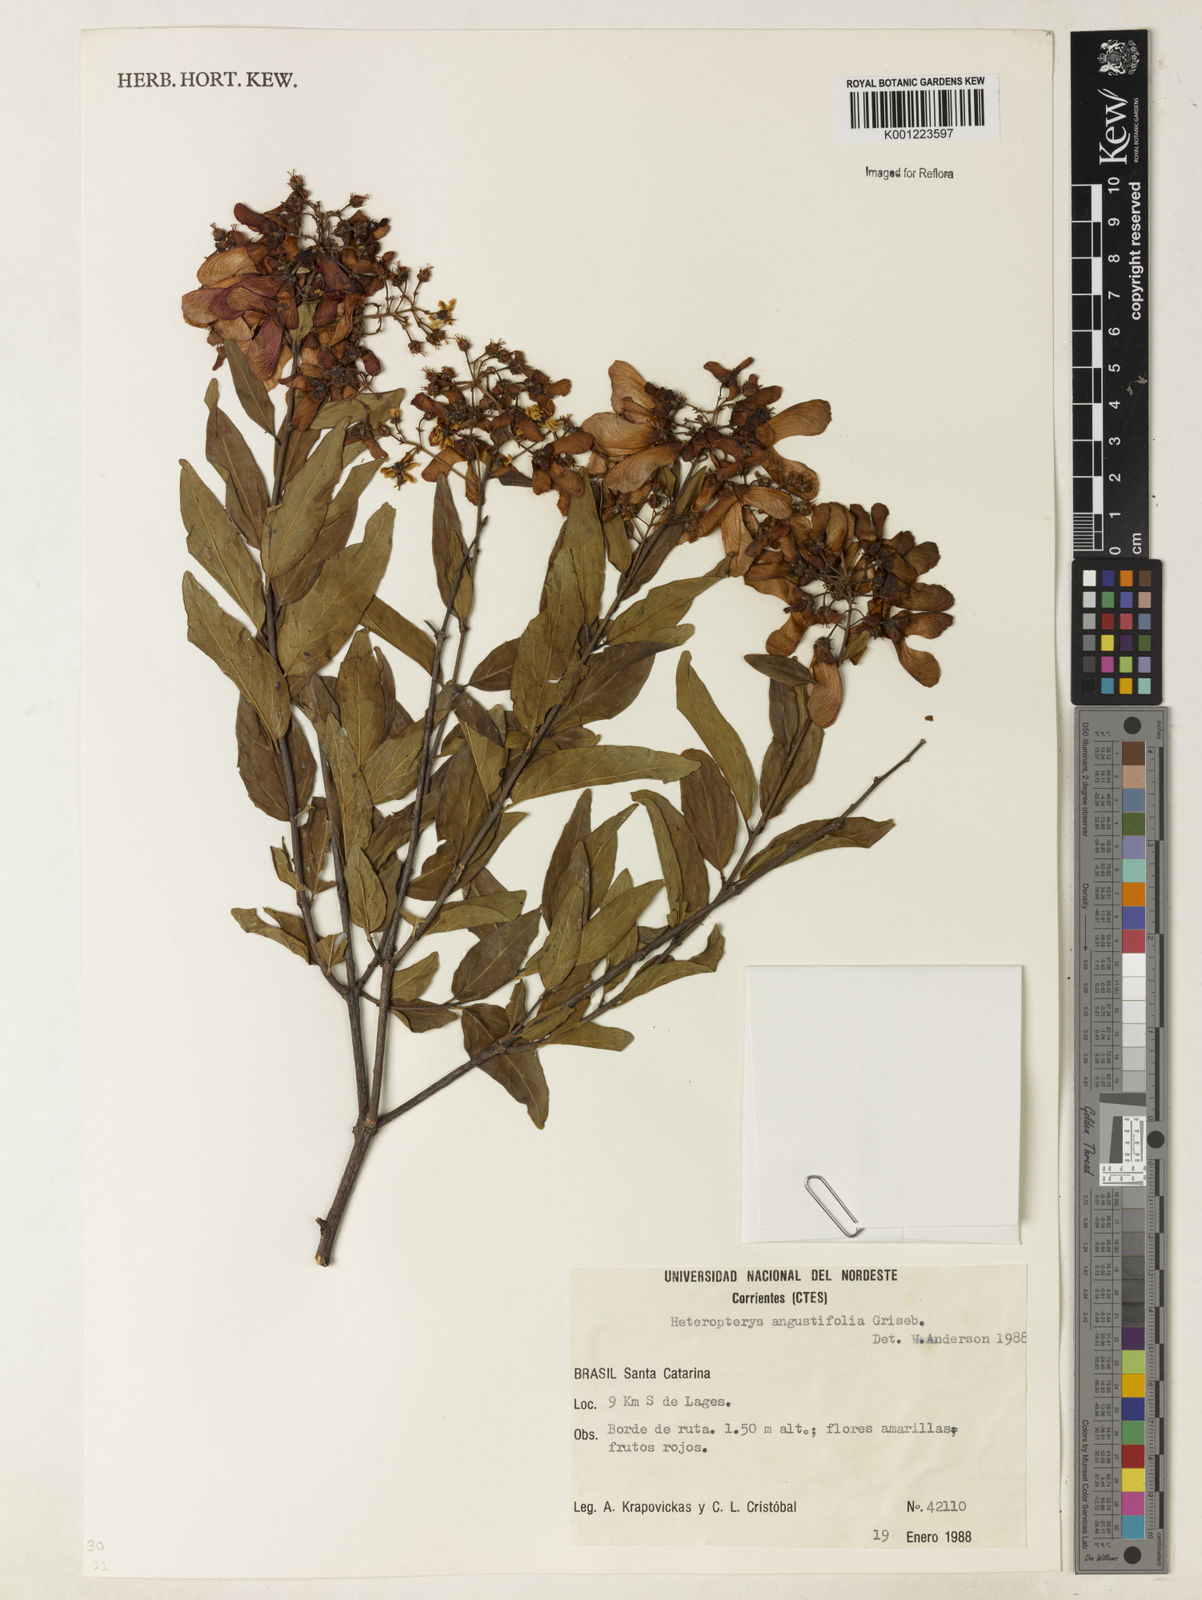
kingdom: Plantae
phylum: Tracheophyta
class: Magnoliopsida
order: Malpighiales
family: Malpighiaceae
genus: Heteropterys
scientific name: Heteropterys glabra
